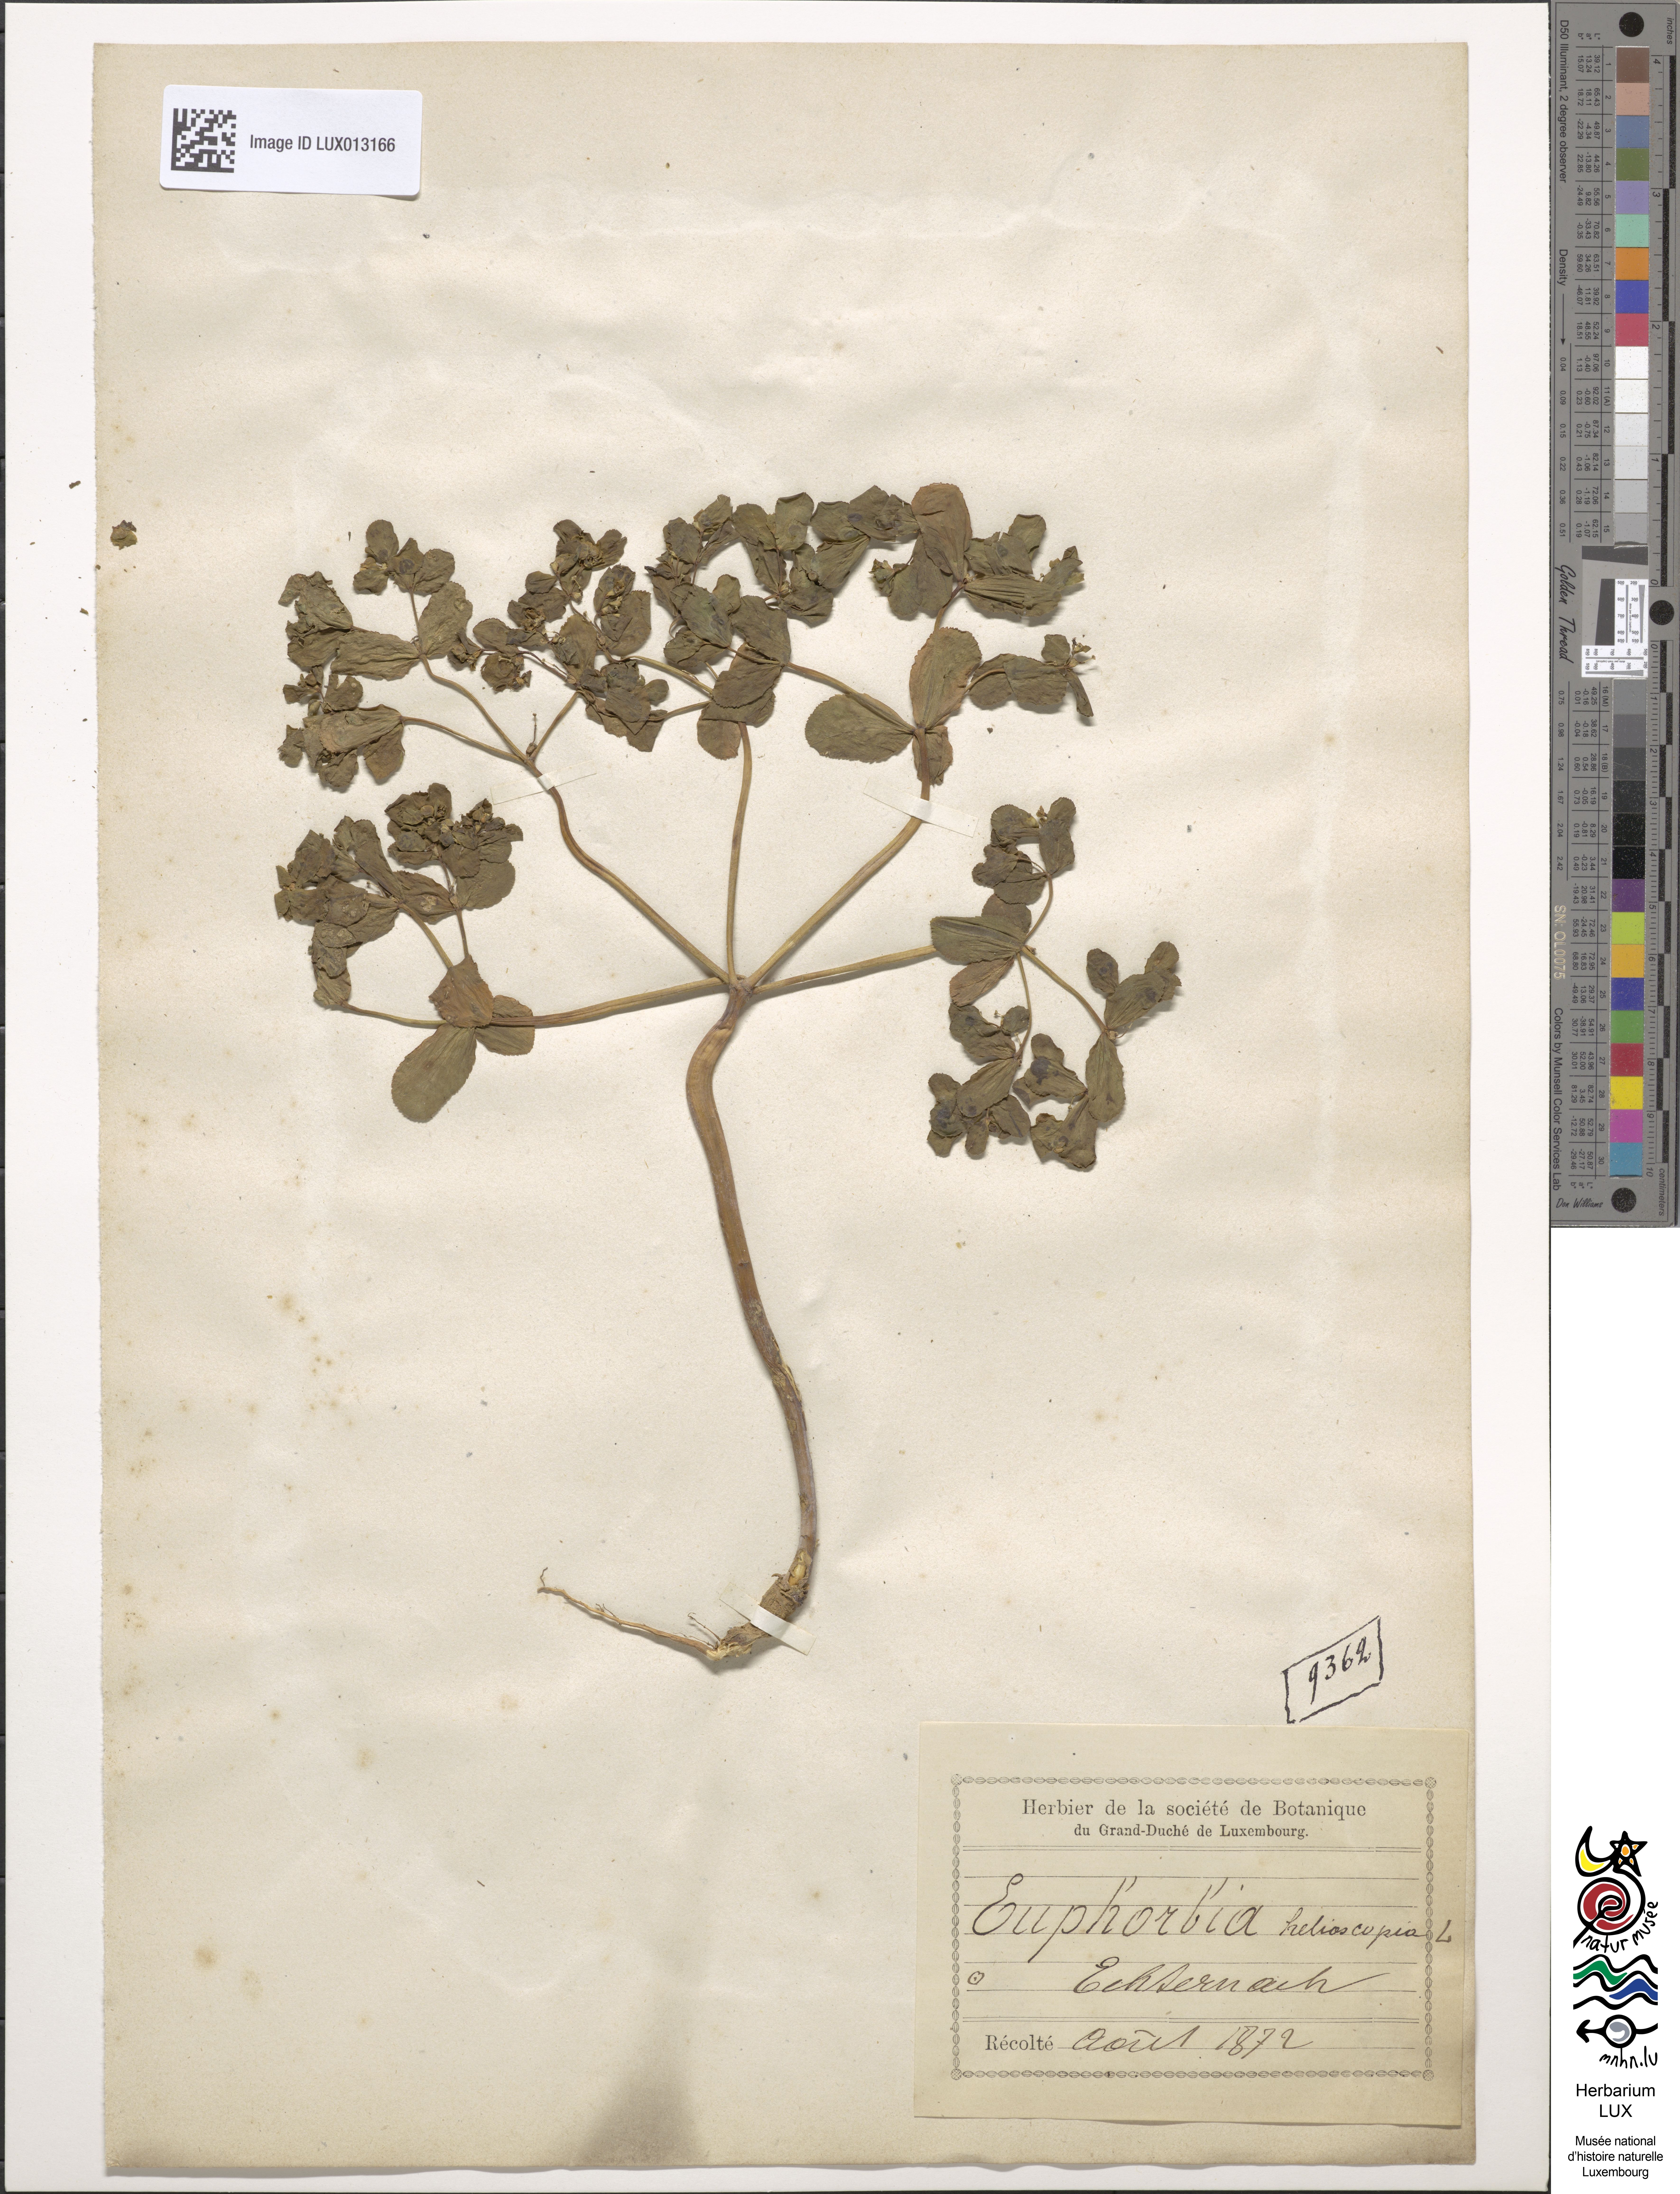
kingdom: Plantae
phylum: Tracheophyta
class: Magnoliopsida
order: Malpighiales
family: Euphorbiaceae
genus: Euphorbia
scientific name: Euphorbia helioscopia
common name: Sun spurge
